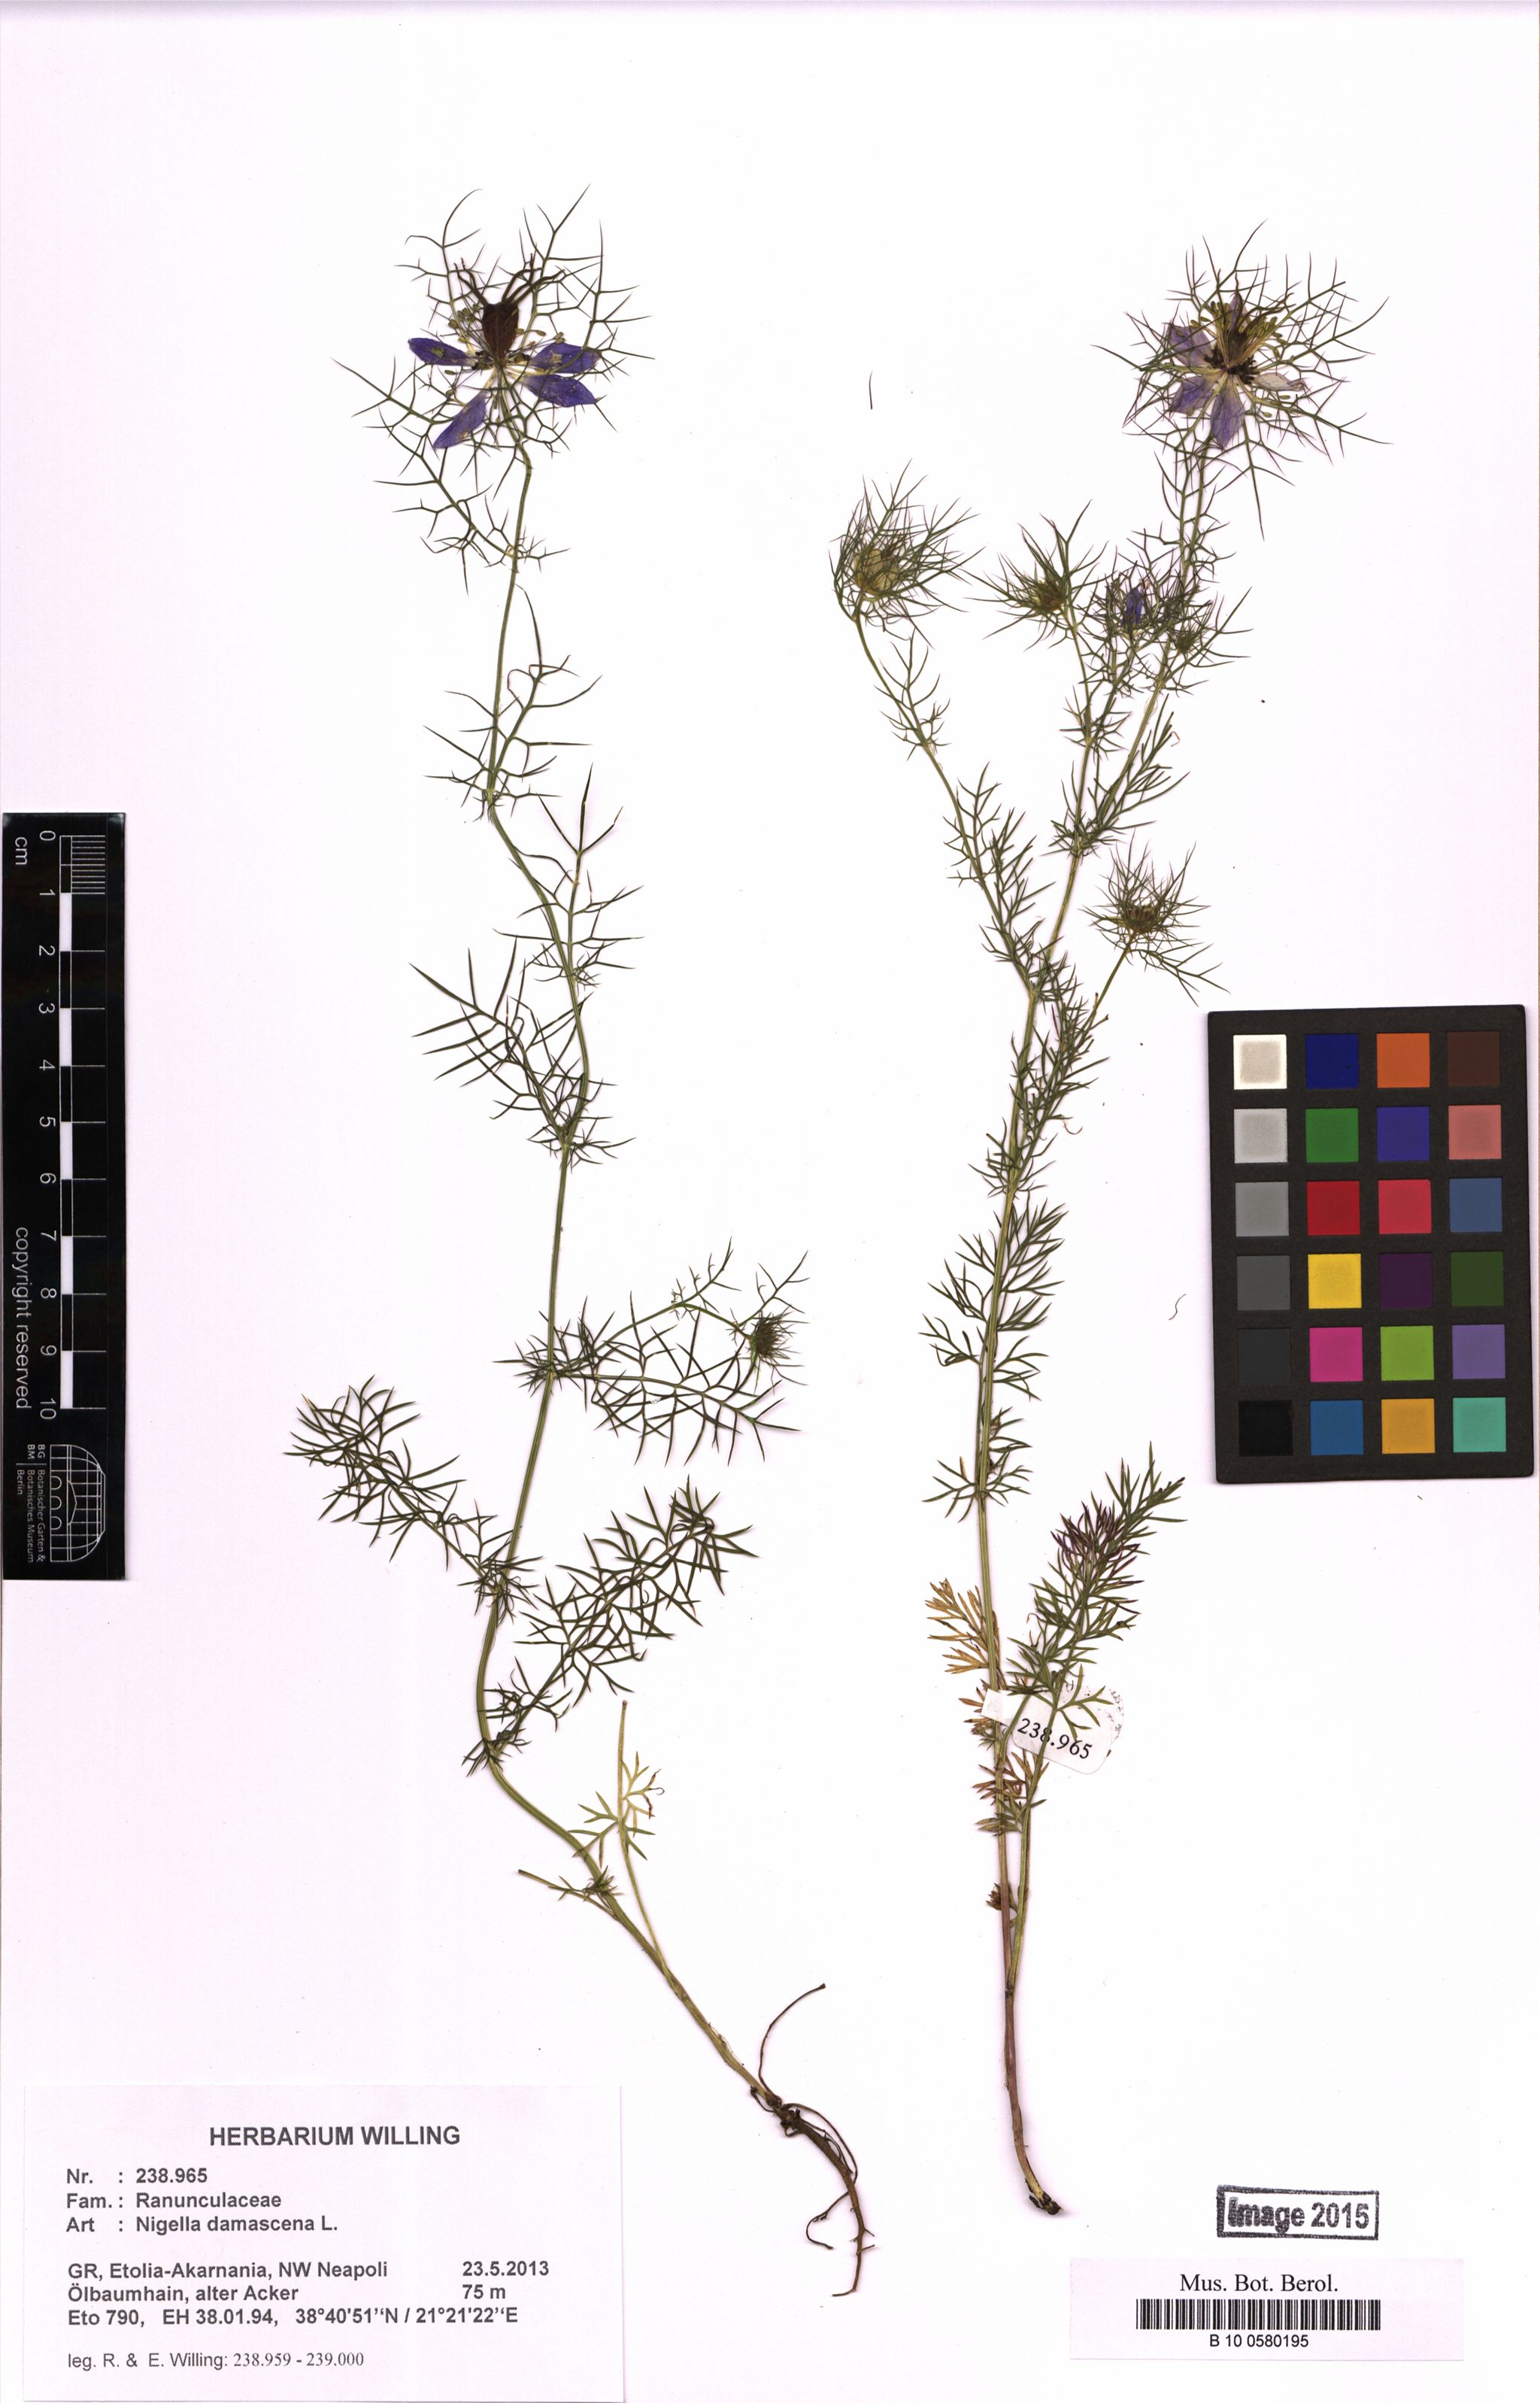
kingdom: Plantae
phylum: Tracheophyta
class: Magnoliopsida
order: Ranunculales
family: Ranunculaceae
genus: Nigella
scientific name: Nigella damascena
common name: Love-in-a-mist
